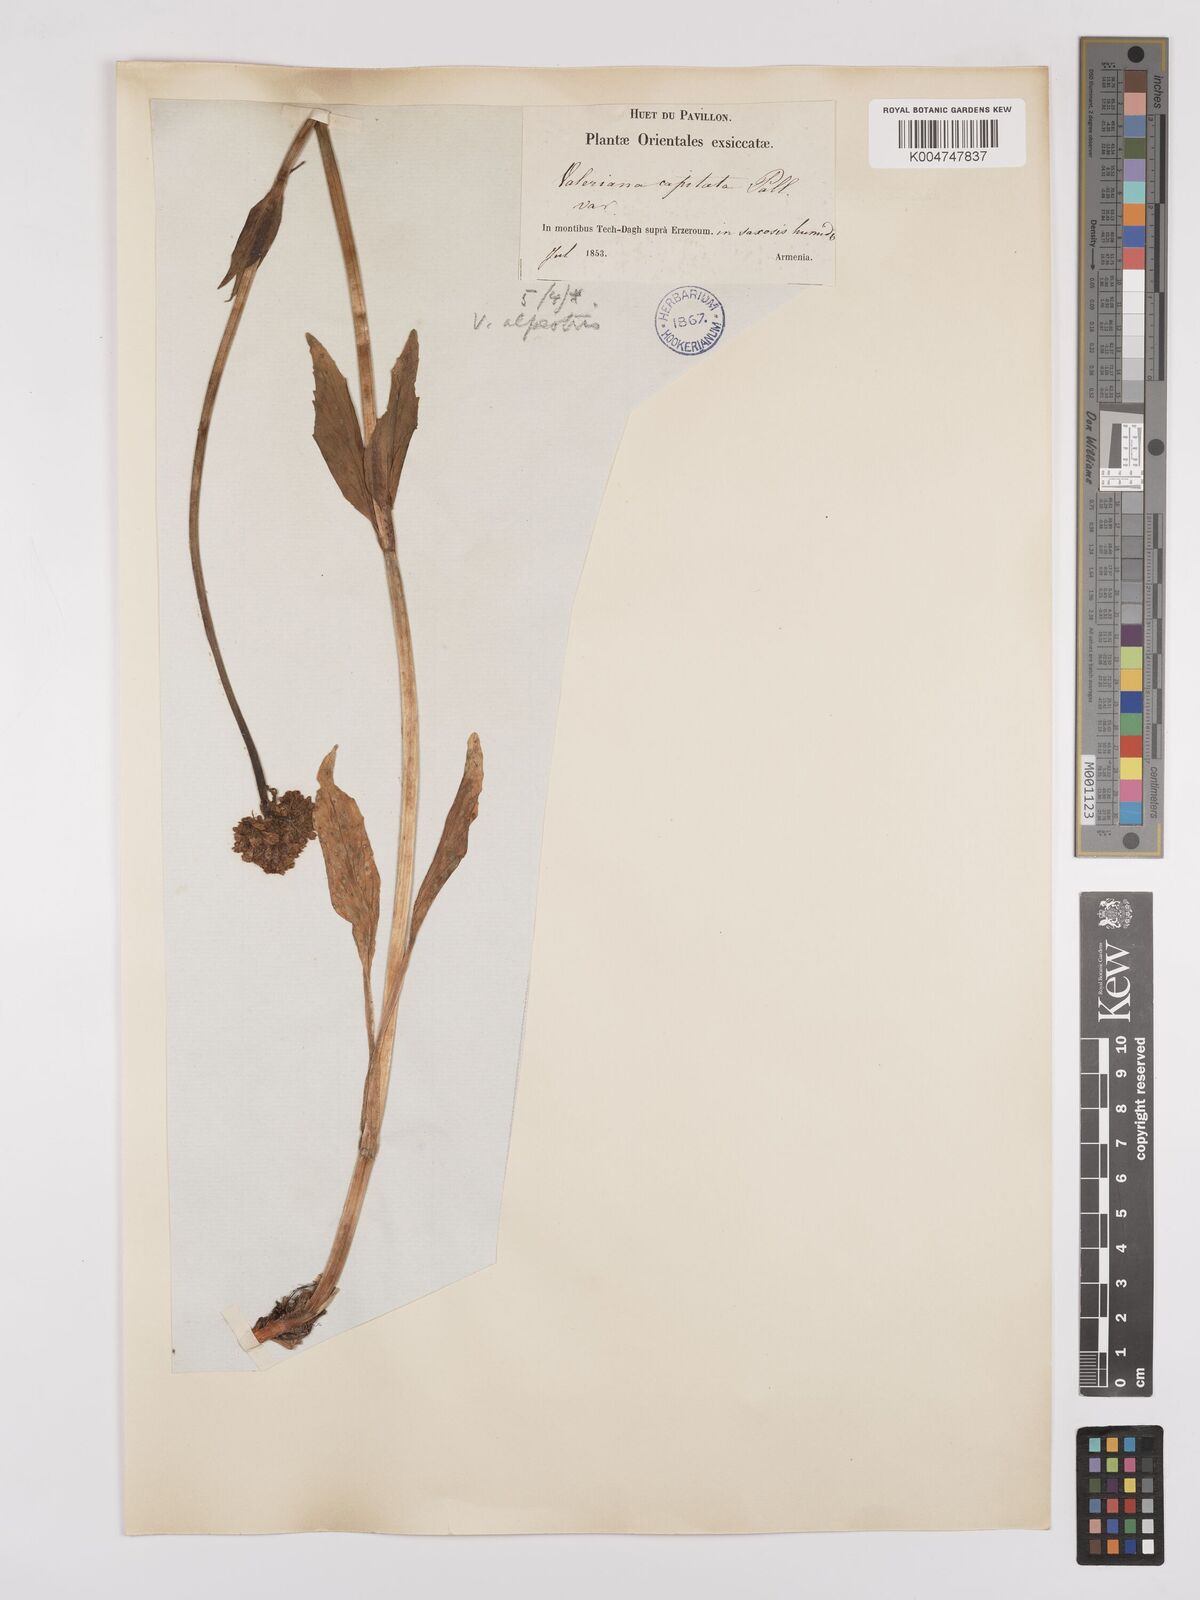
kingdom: Plantae
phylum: Tracheophyta
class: Magnoliopsida
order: Dipsacales
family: Caprifoliaceae
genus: Valeriana
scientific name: Valeriana alpestris
